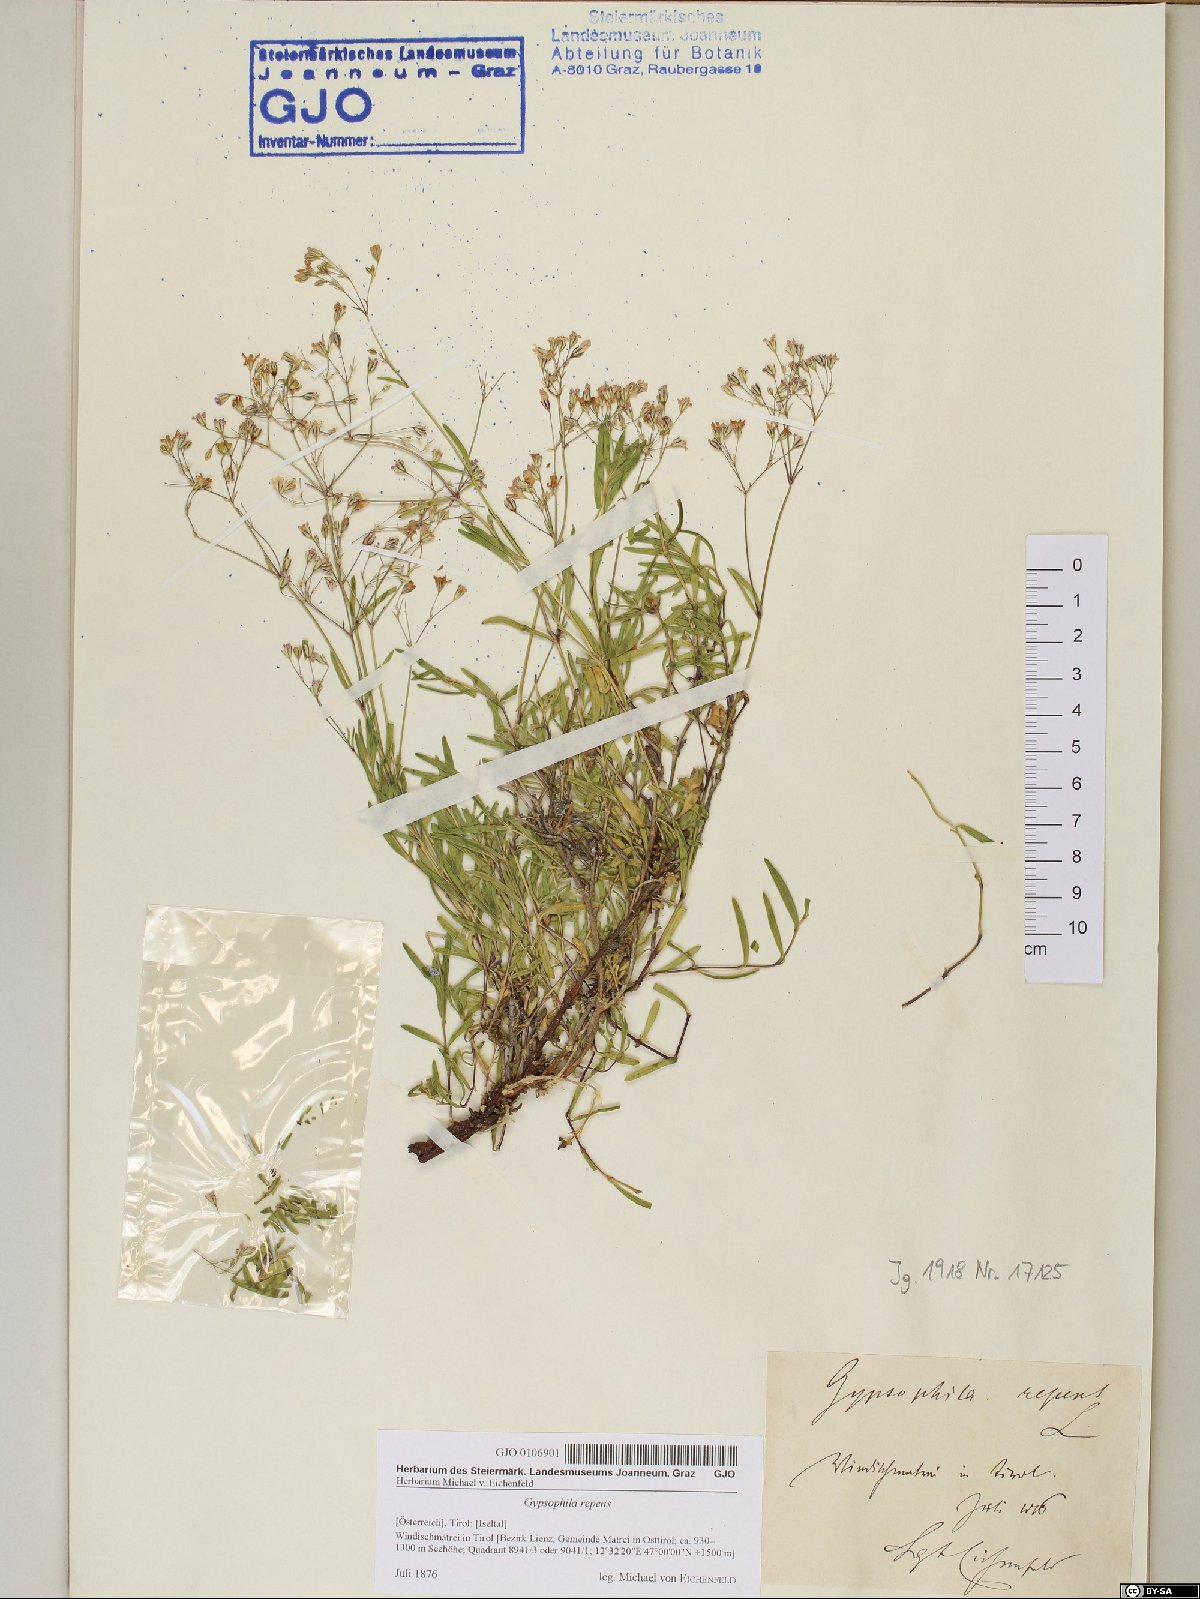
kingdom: Plantae
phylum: Tracheophyta
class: Magnoliopsida
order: Caryophyllales
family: Caryophyllaceae
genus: Gypsophila
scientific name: Gypsophila repens
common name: Creeping baby's-breath
